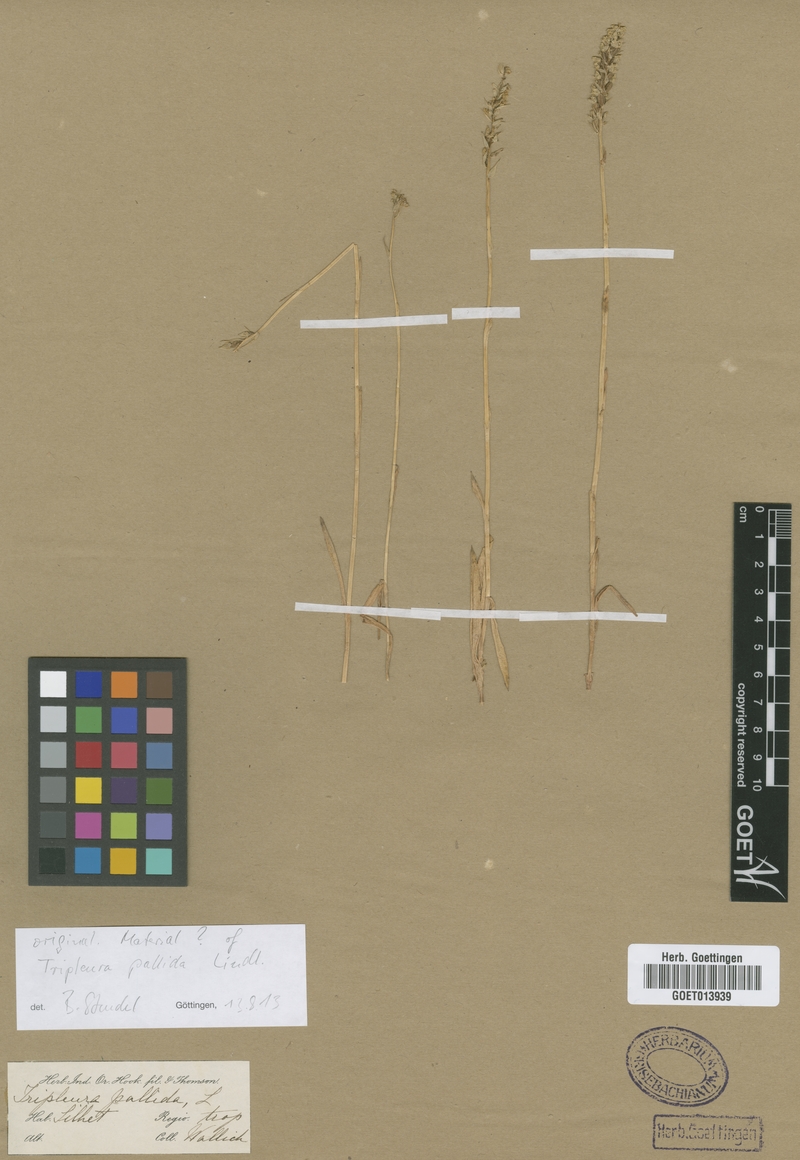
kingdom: Plantae
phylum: Tracheophyta
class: Liliopsida
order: Asparagales
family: Orchidaceae
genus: Zeuxine
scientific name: Zeuxine strateumatica
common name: Soldier's orchid
